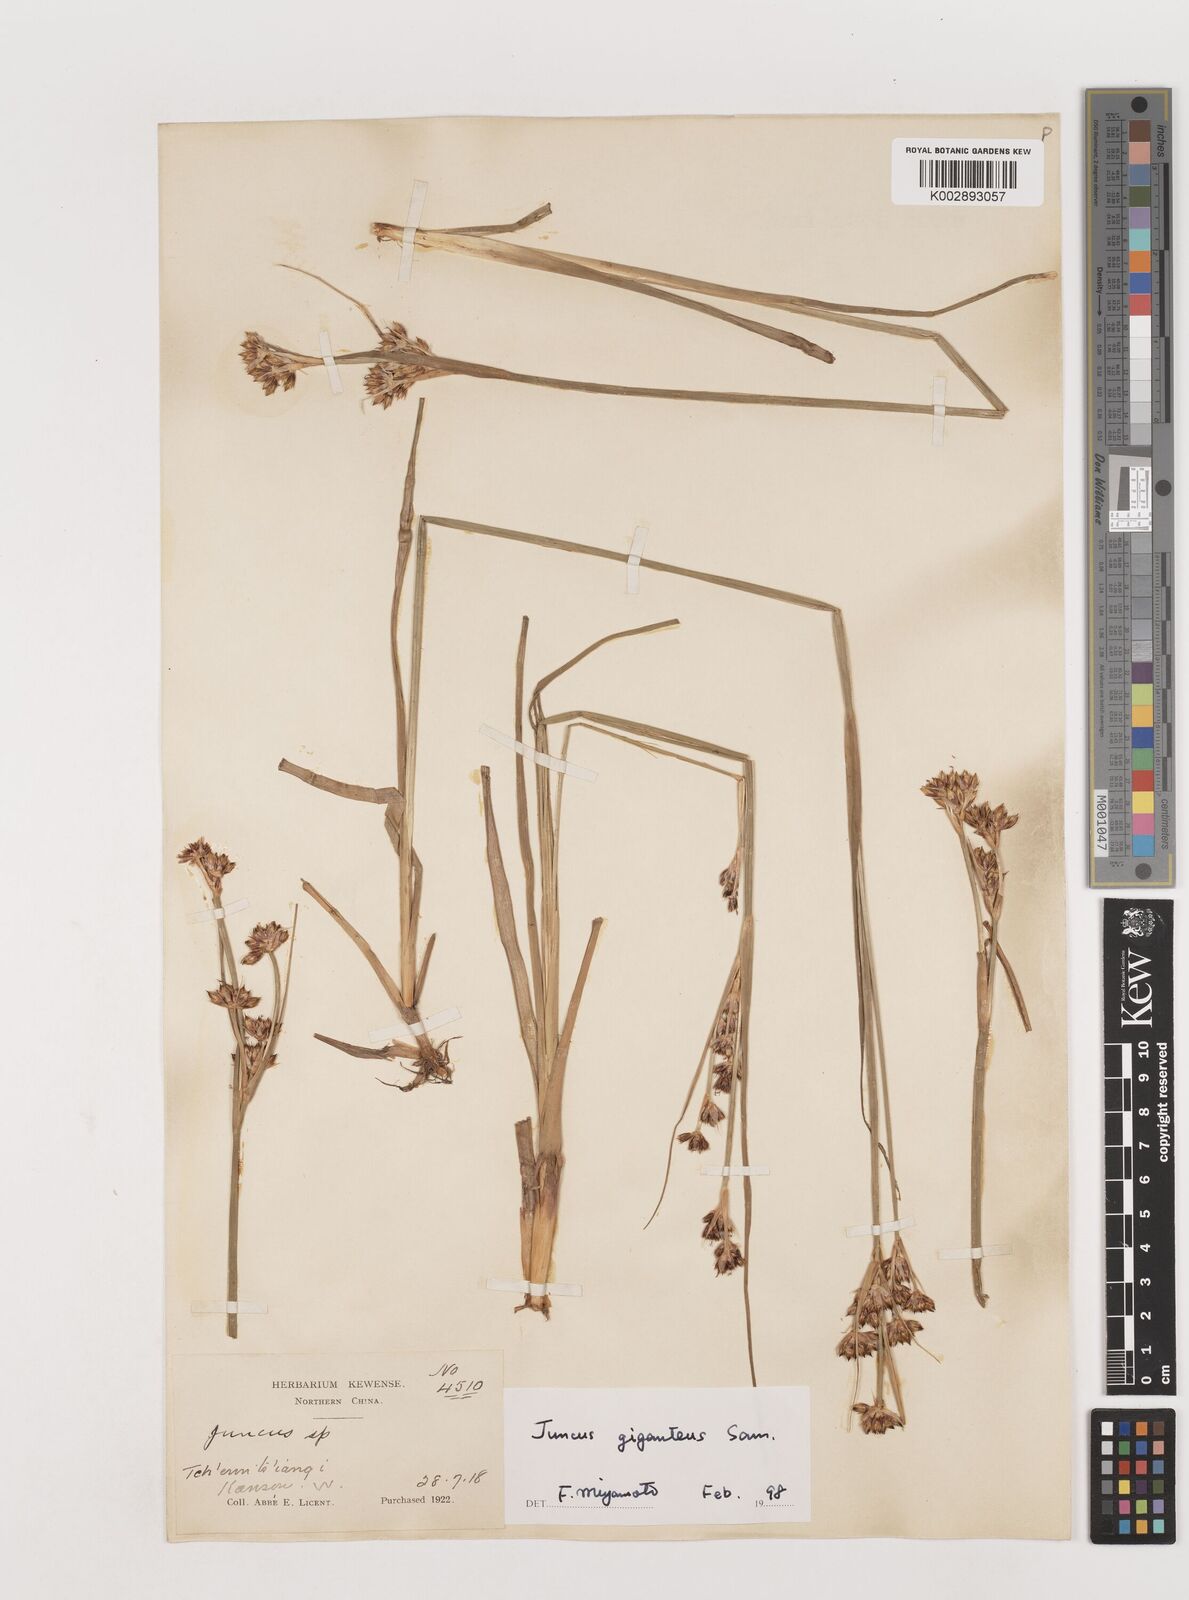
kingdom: Plantae
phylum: Tracheophyta
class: Liliopsida
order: Poales
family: Juncaceae
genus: Juncus
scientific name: Juncus giganteus
